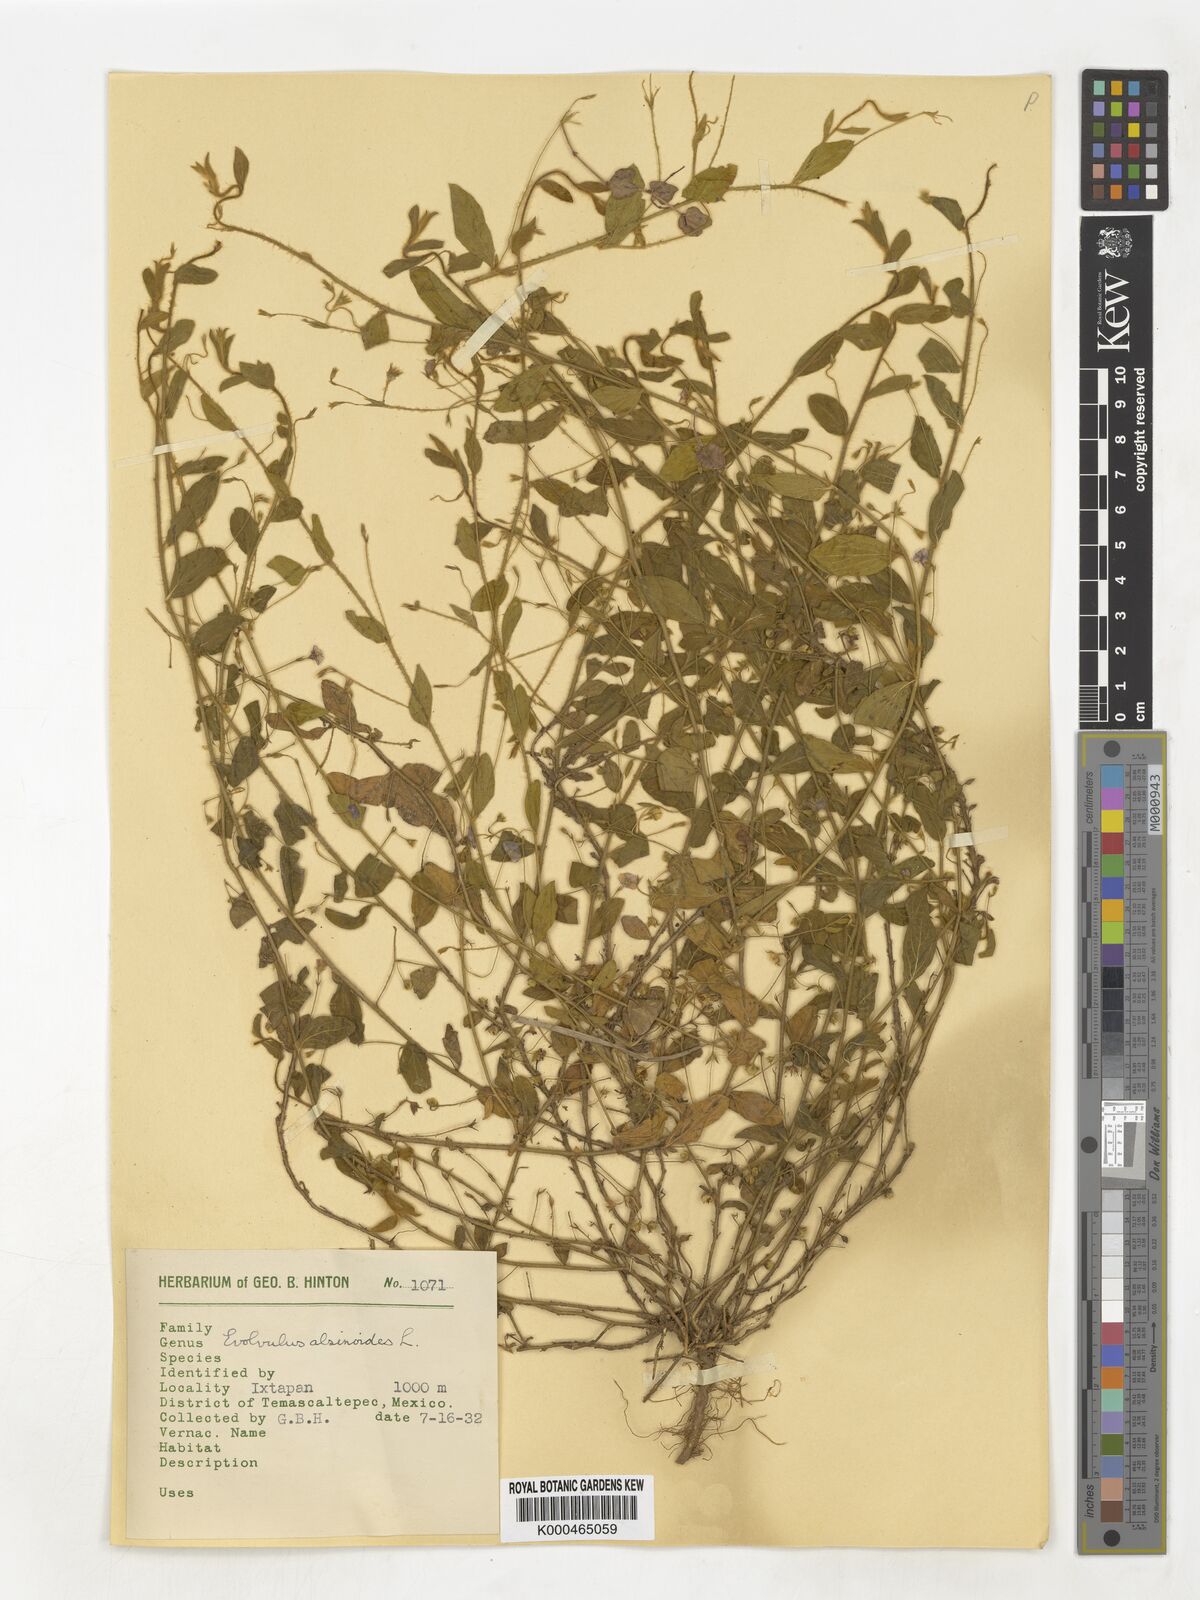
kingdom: Plantae
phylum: Tracheophyta
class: Magnoliopsida
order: Solanales
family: Convolvulaceae
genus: Evolvulus
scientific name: Evolvulus alsinoides
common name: Slender dwarf morning-glory
